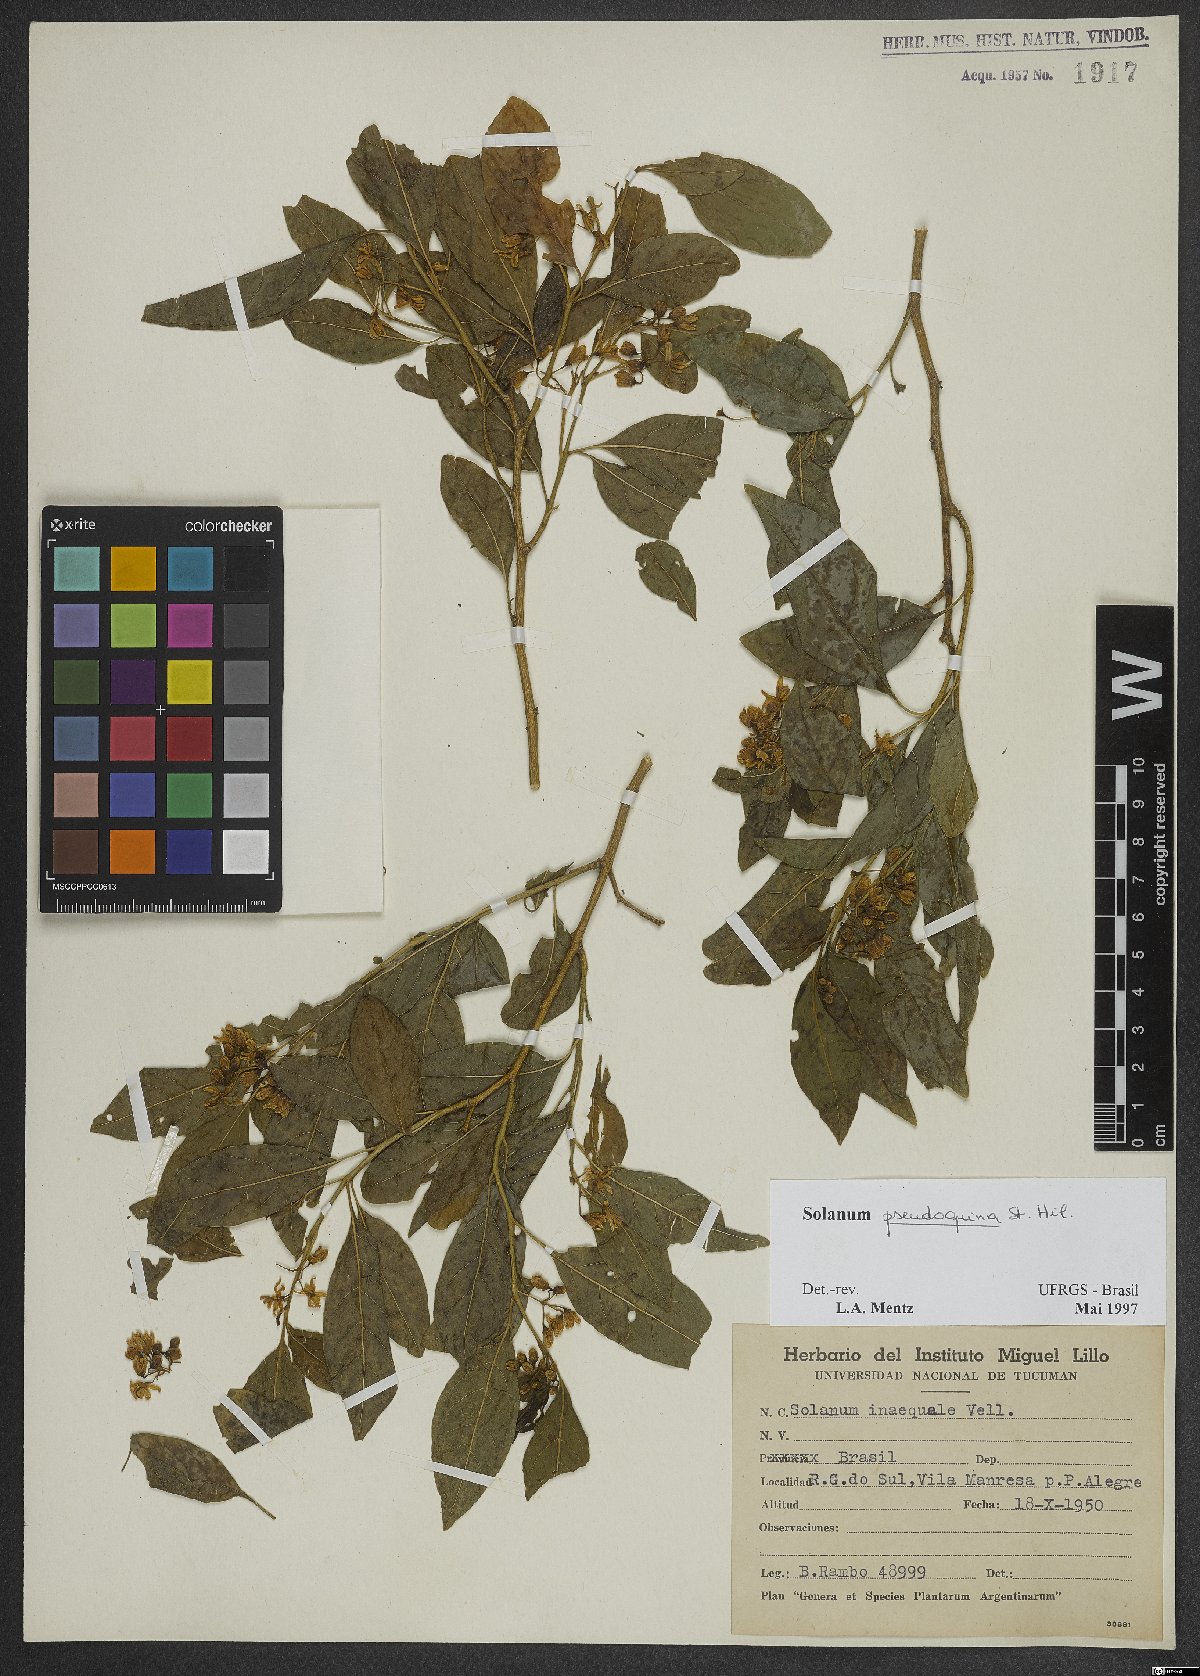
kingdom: Plantae
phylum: Tracheophyta
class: Magnoliopsida
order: Solanales
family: Solanaceae
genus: Solanum
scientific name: Solanum pseudoquina
